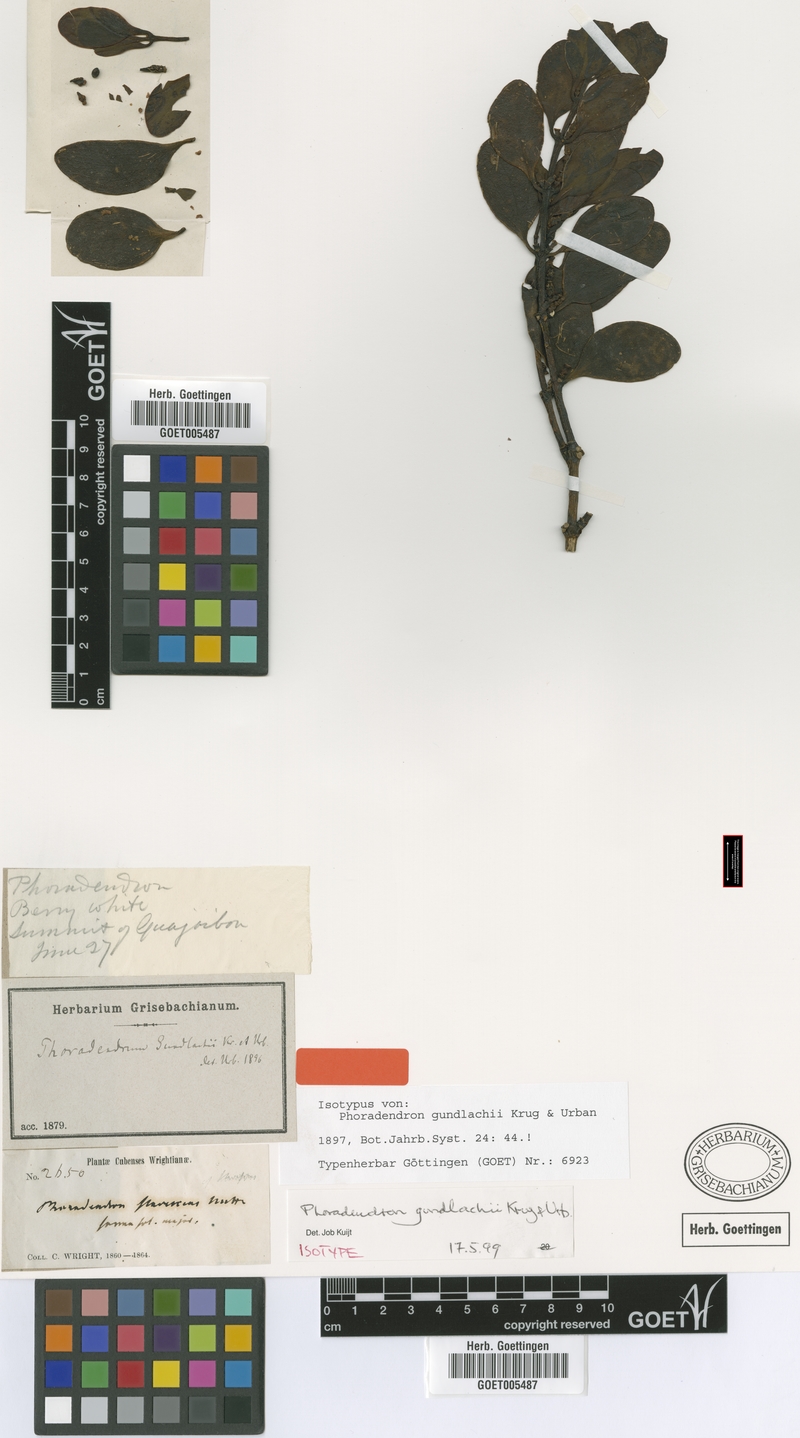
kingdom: Plantae
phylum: Tracheophyta
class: Magnoliopsida
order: Santalales
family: Viscaceae
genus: Phoradendron
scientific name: Phoradendron gundlachii
